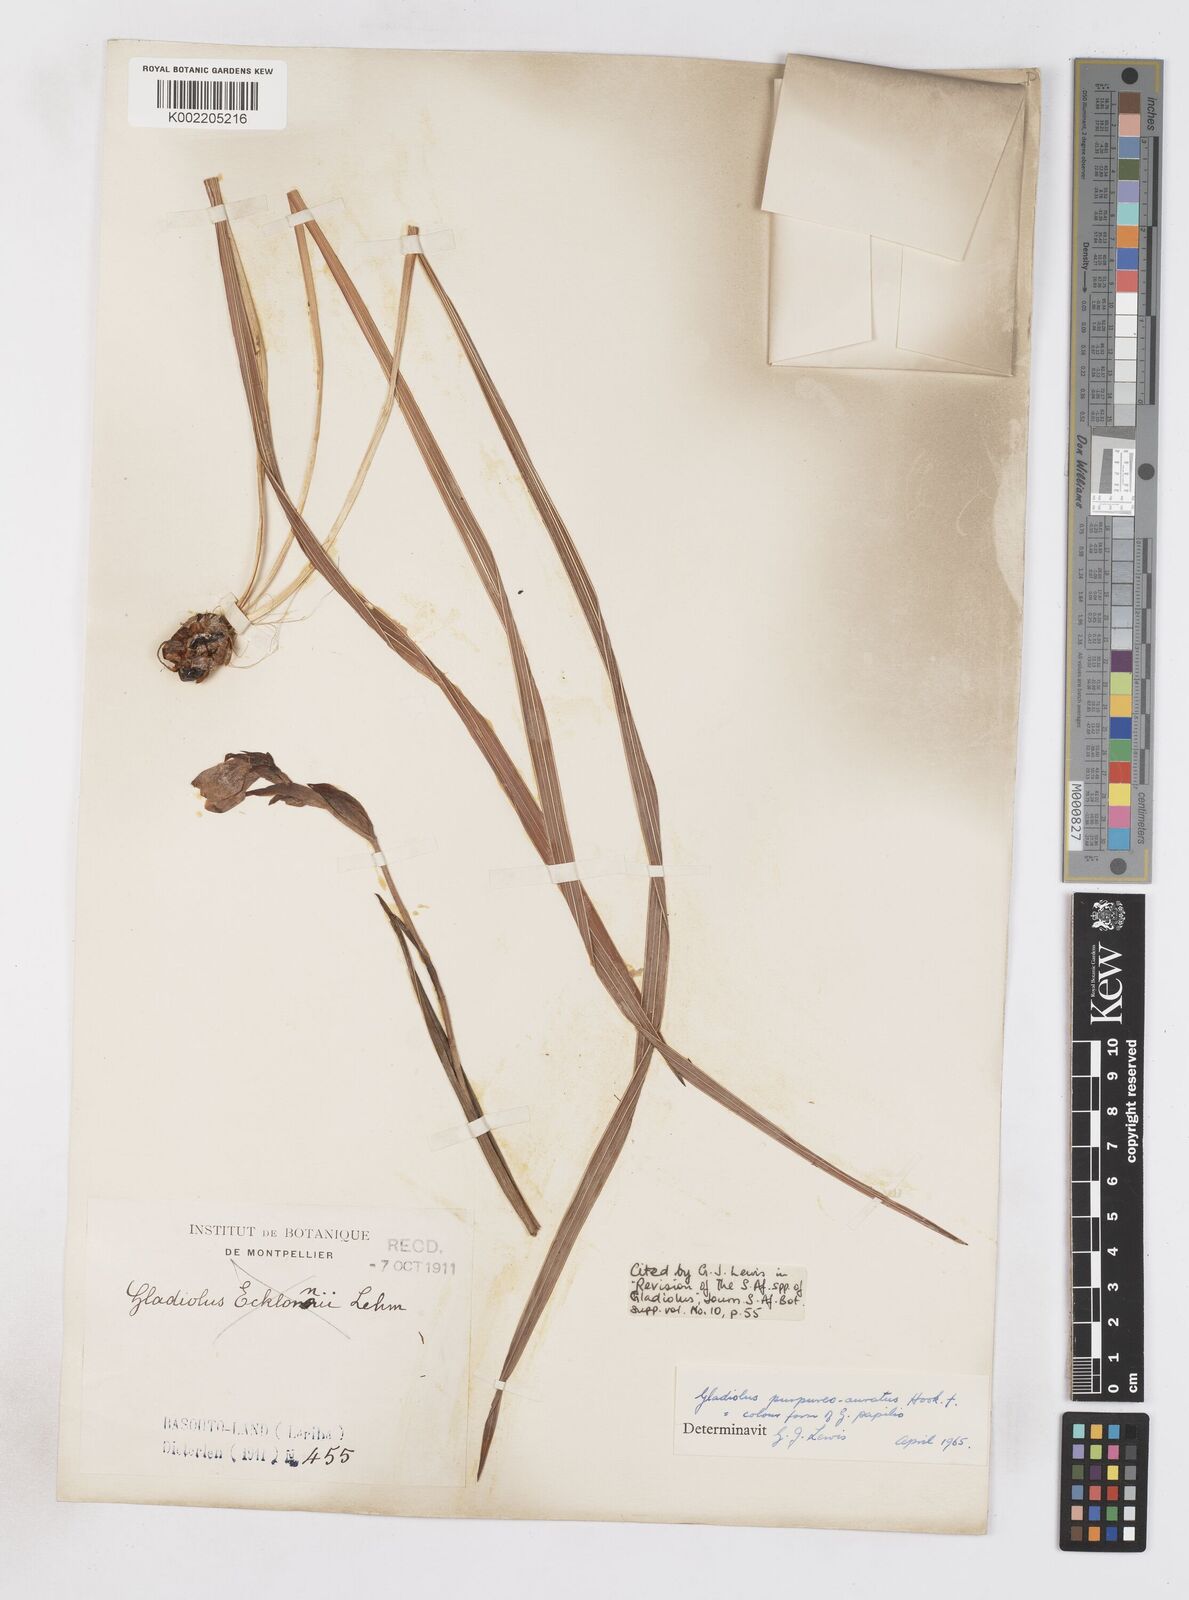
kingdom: Plantae
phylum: Tracheophyta
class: Liliopsida
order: Asparagales
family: Iridaceae
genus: Gladiolus
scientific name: Gladiolus papilio
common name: Goldblotch gladiolus
